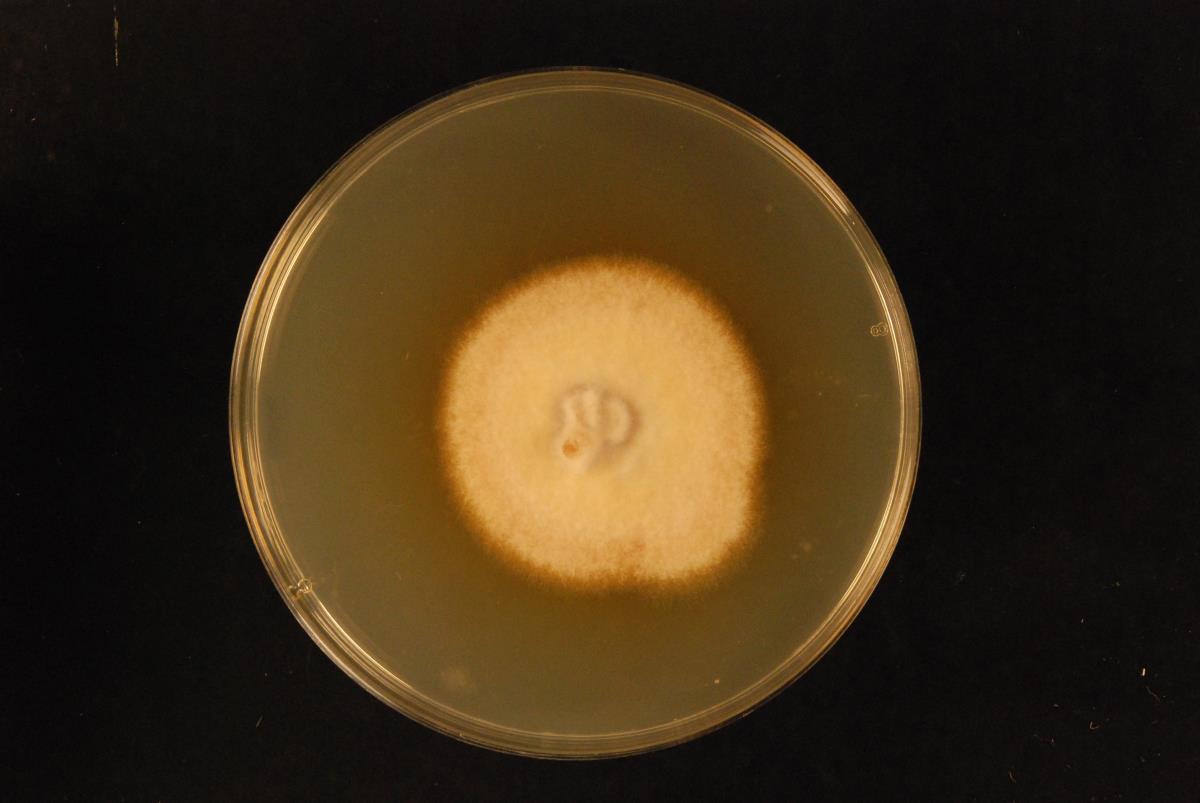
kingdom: Fungi
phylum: Ascomycota
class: Dothideomycetes
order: Pleosporales
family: Pleosporaceae
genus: Stemphylium
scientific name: Stemphylium vesicarium
